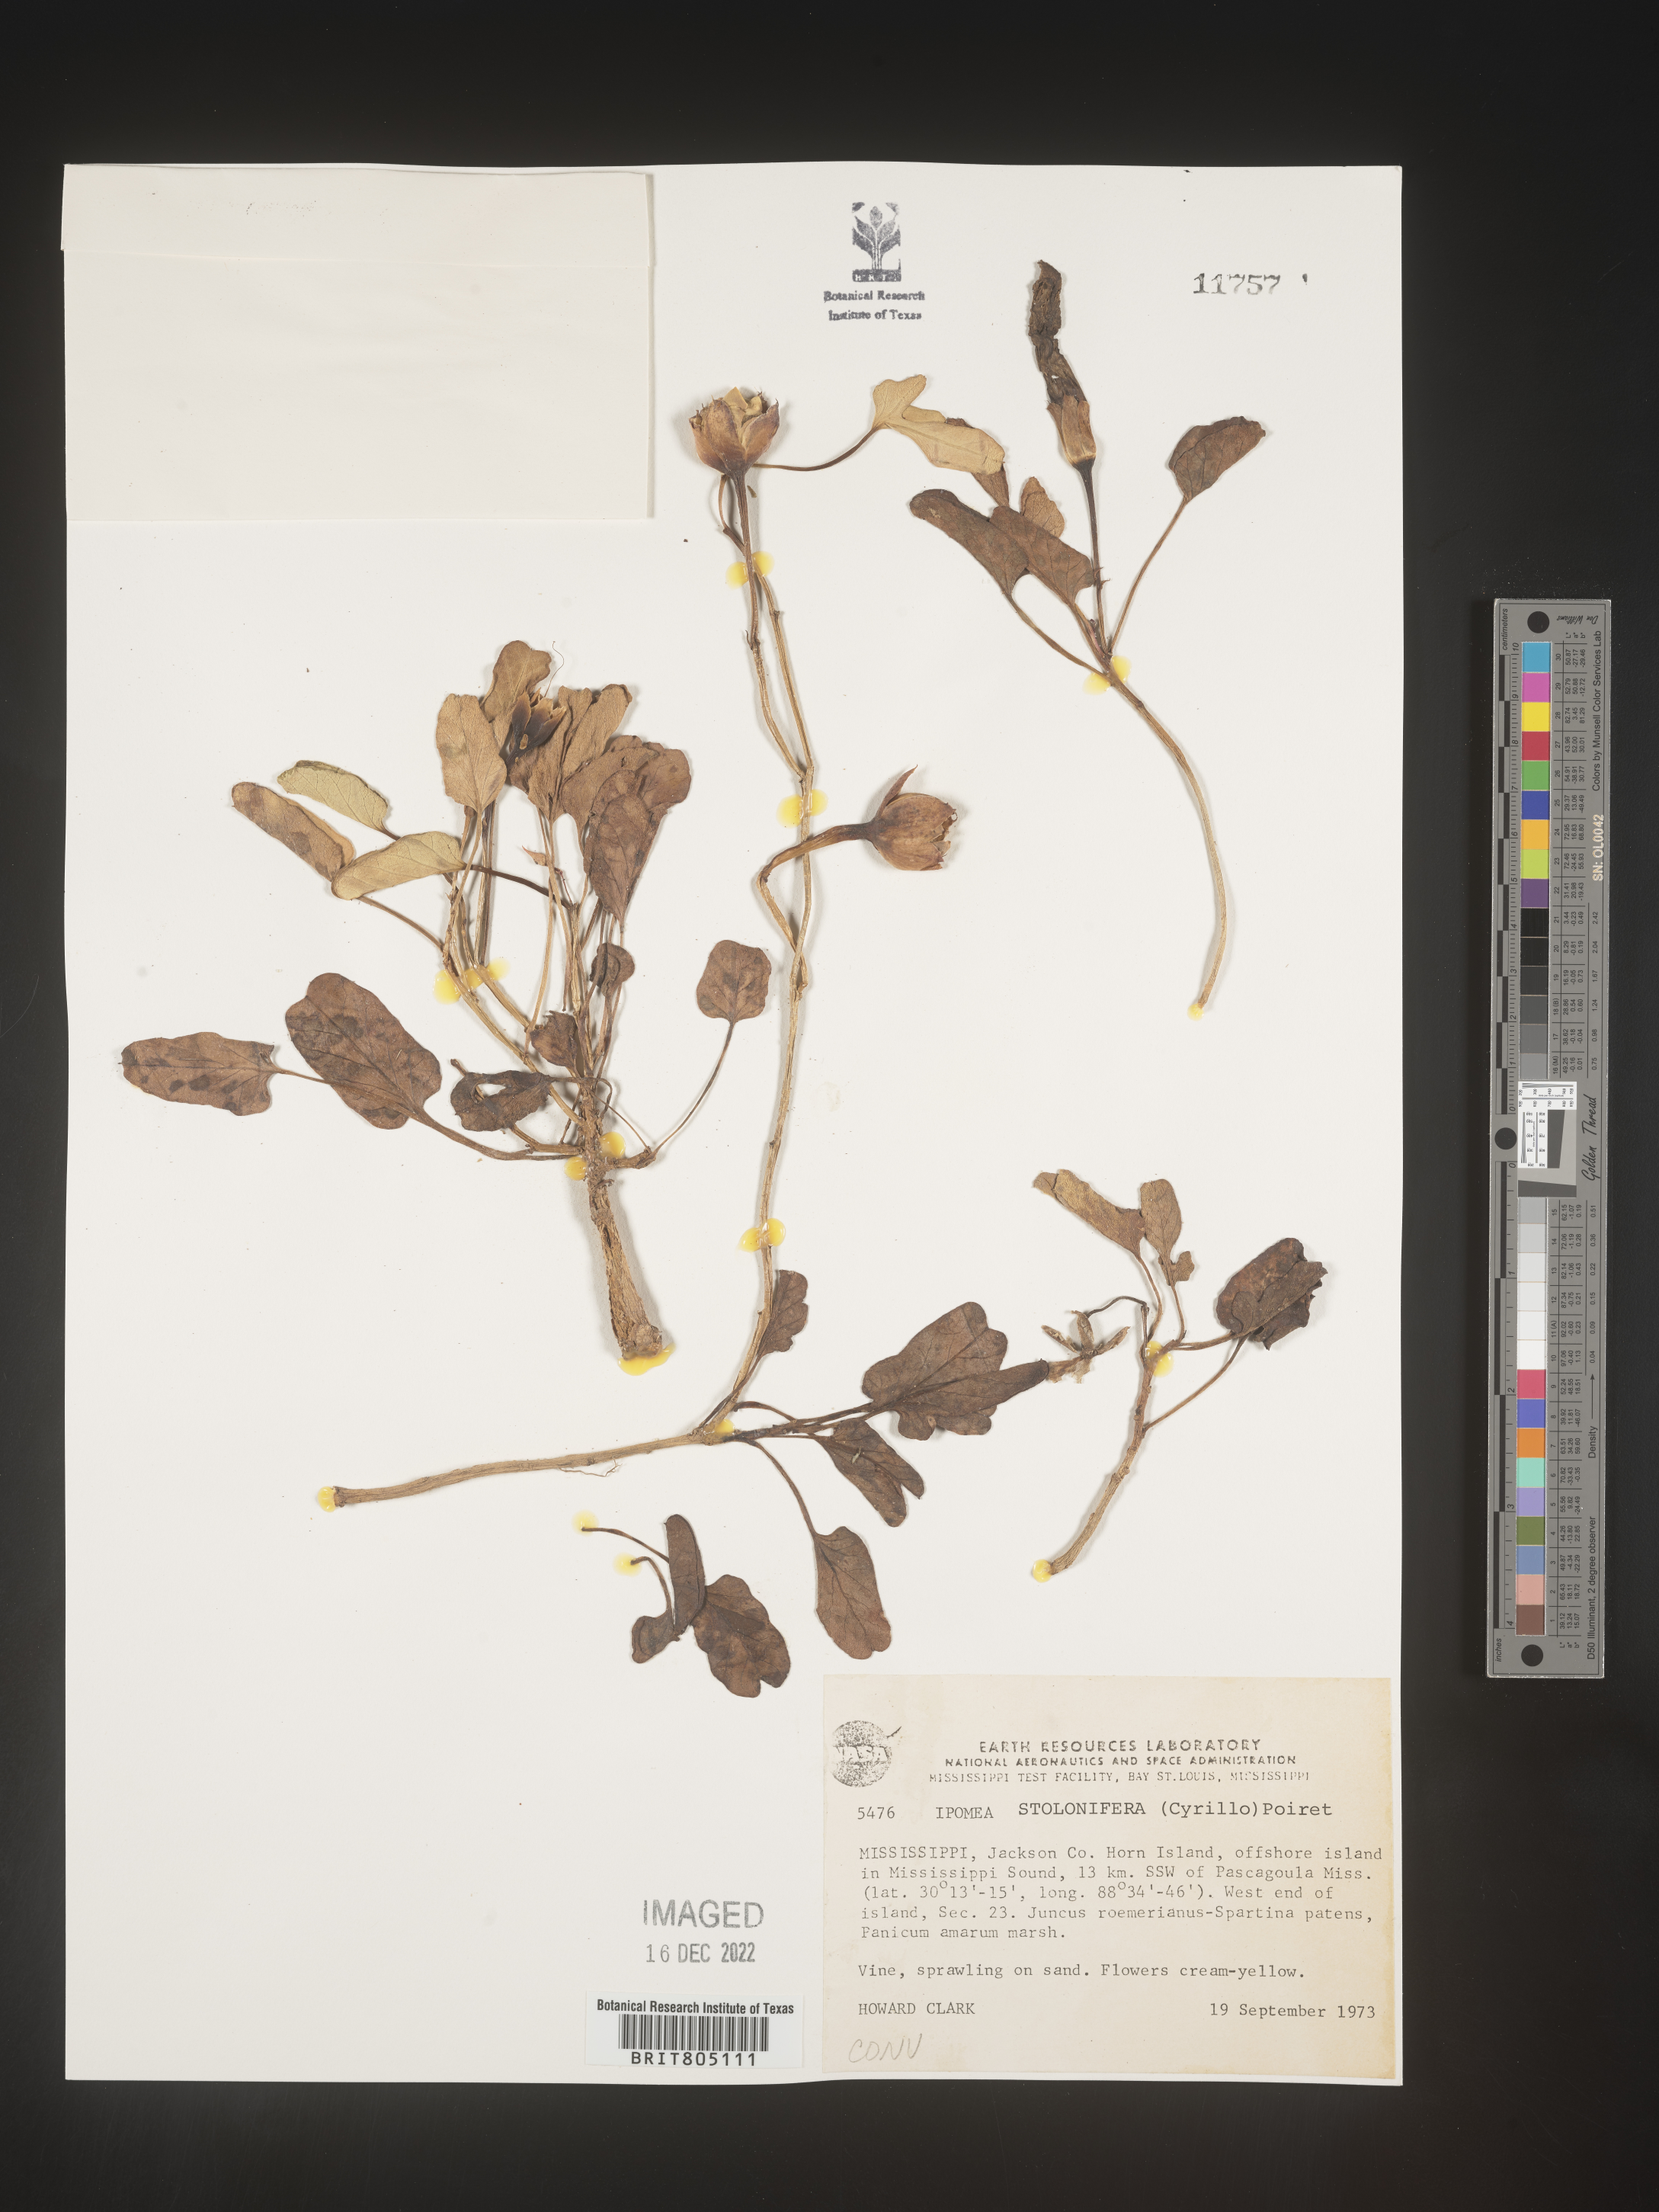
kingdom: Plantae
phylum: Tracheophyta
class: Magnoliopsida
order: Solanales
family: Convolvulaceae
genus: Ipomoea
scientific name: Ipomoea imperati
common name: Fiddle-leaf morning-glory
